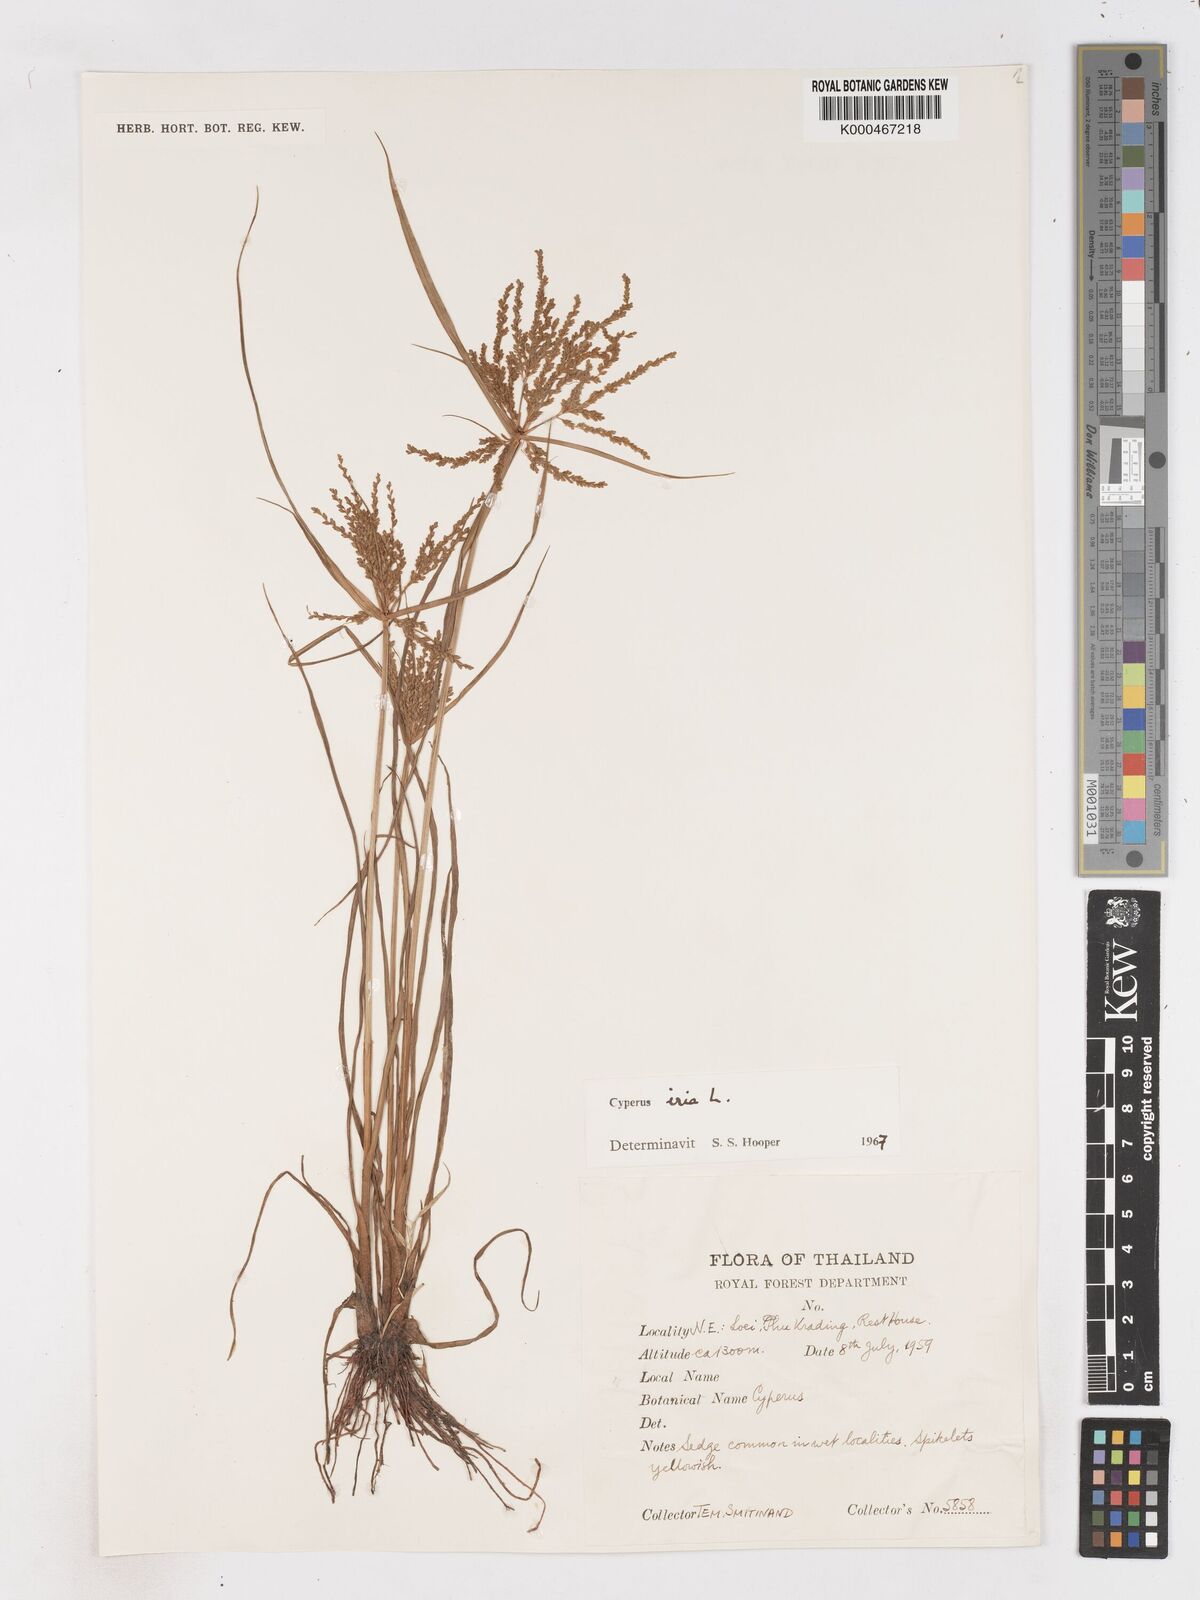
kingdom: Plantae
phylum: Tracheophyta
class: Liliopsida
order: Poales
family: Cyperaceae
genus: Cyperus
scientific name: Cyperus iria
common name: Ricefield flatsedge
